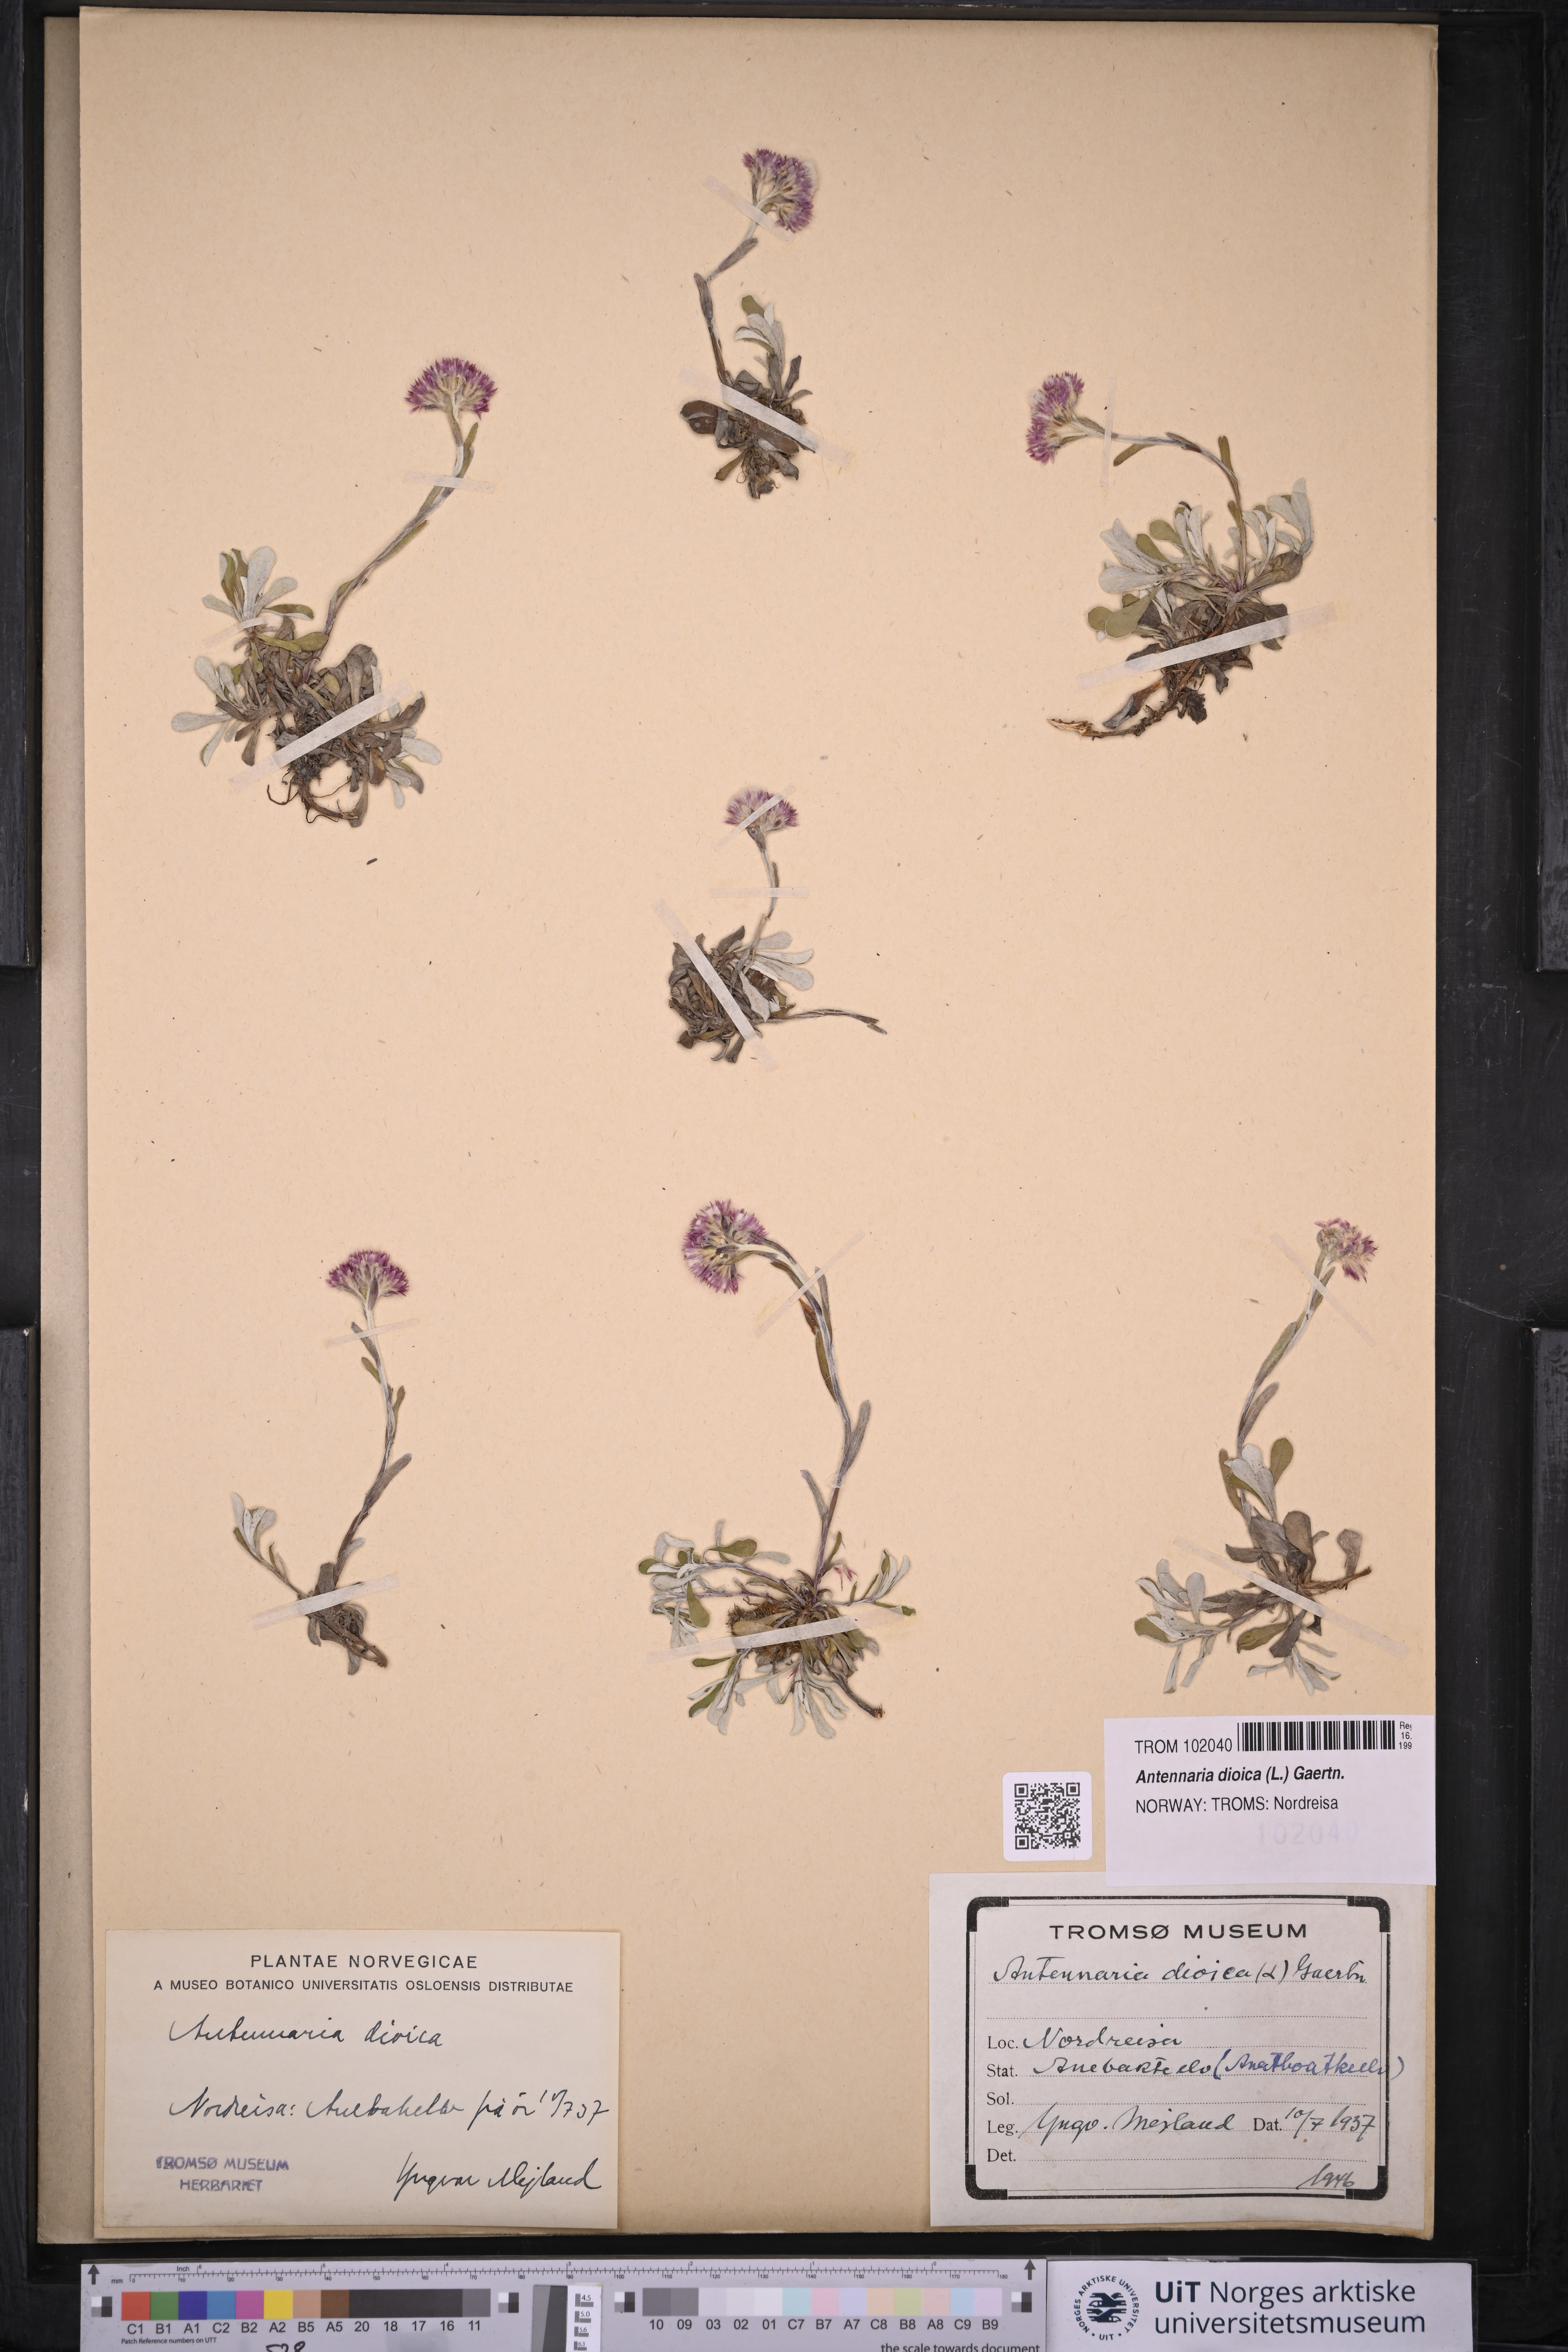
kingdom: Plantae
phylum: Tracheophyta
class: Magnoliopsida
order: Asterales
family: Asteraceae
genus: Antennaria
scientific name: Antennaria dioica
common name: Mountain everlasting
